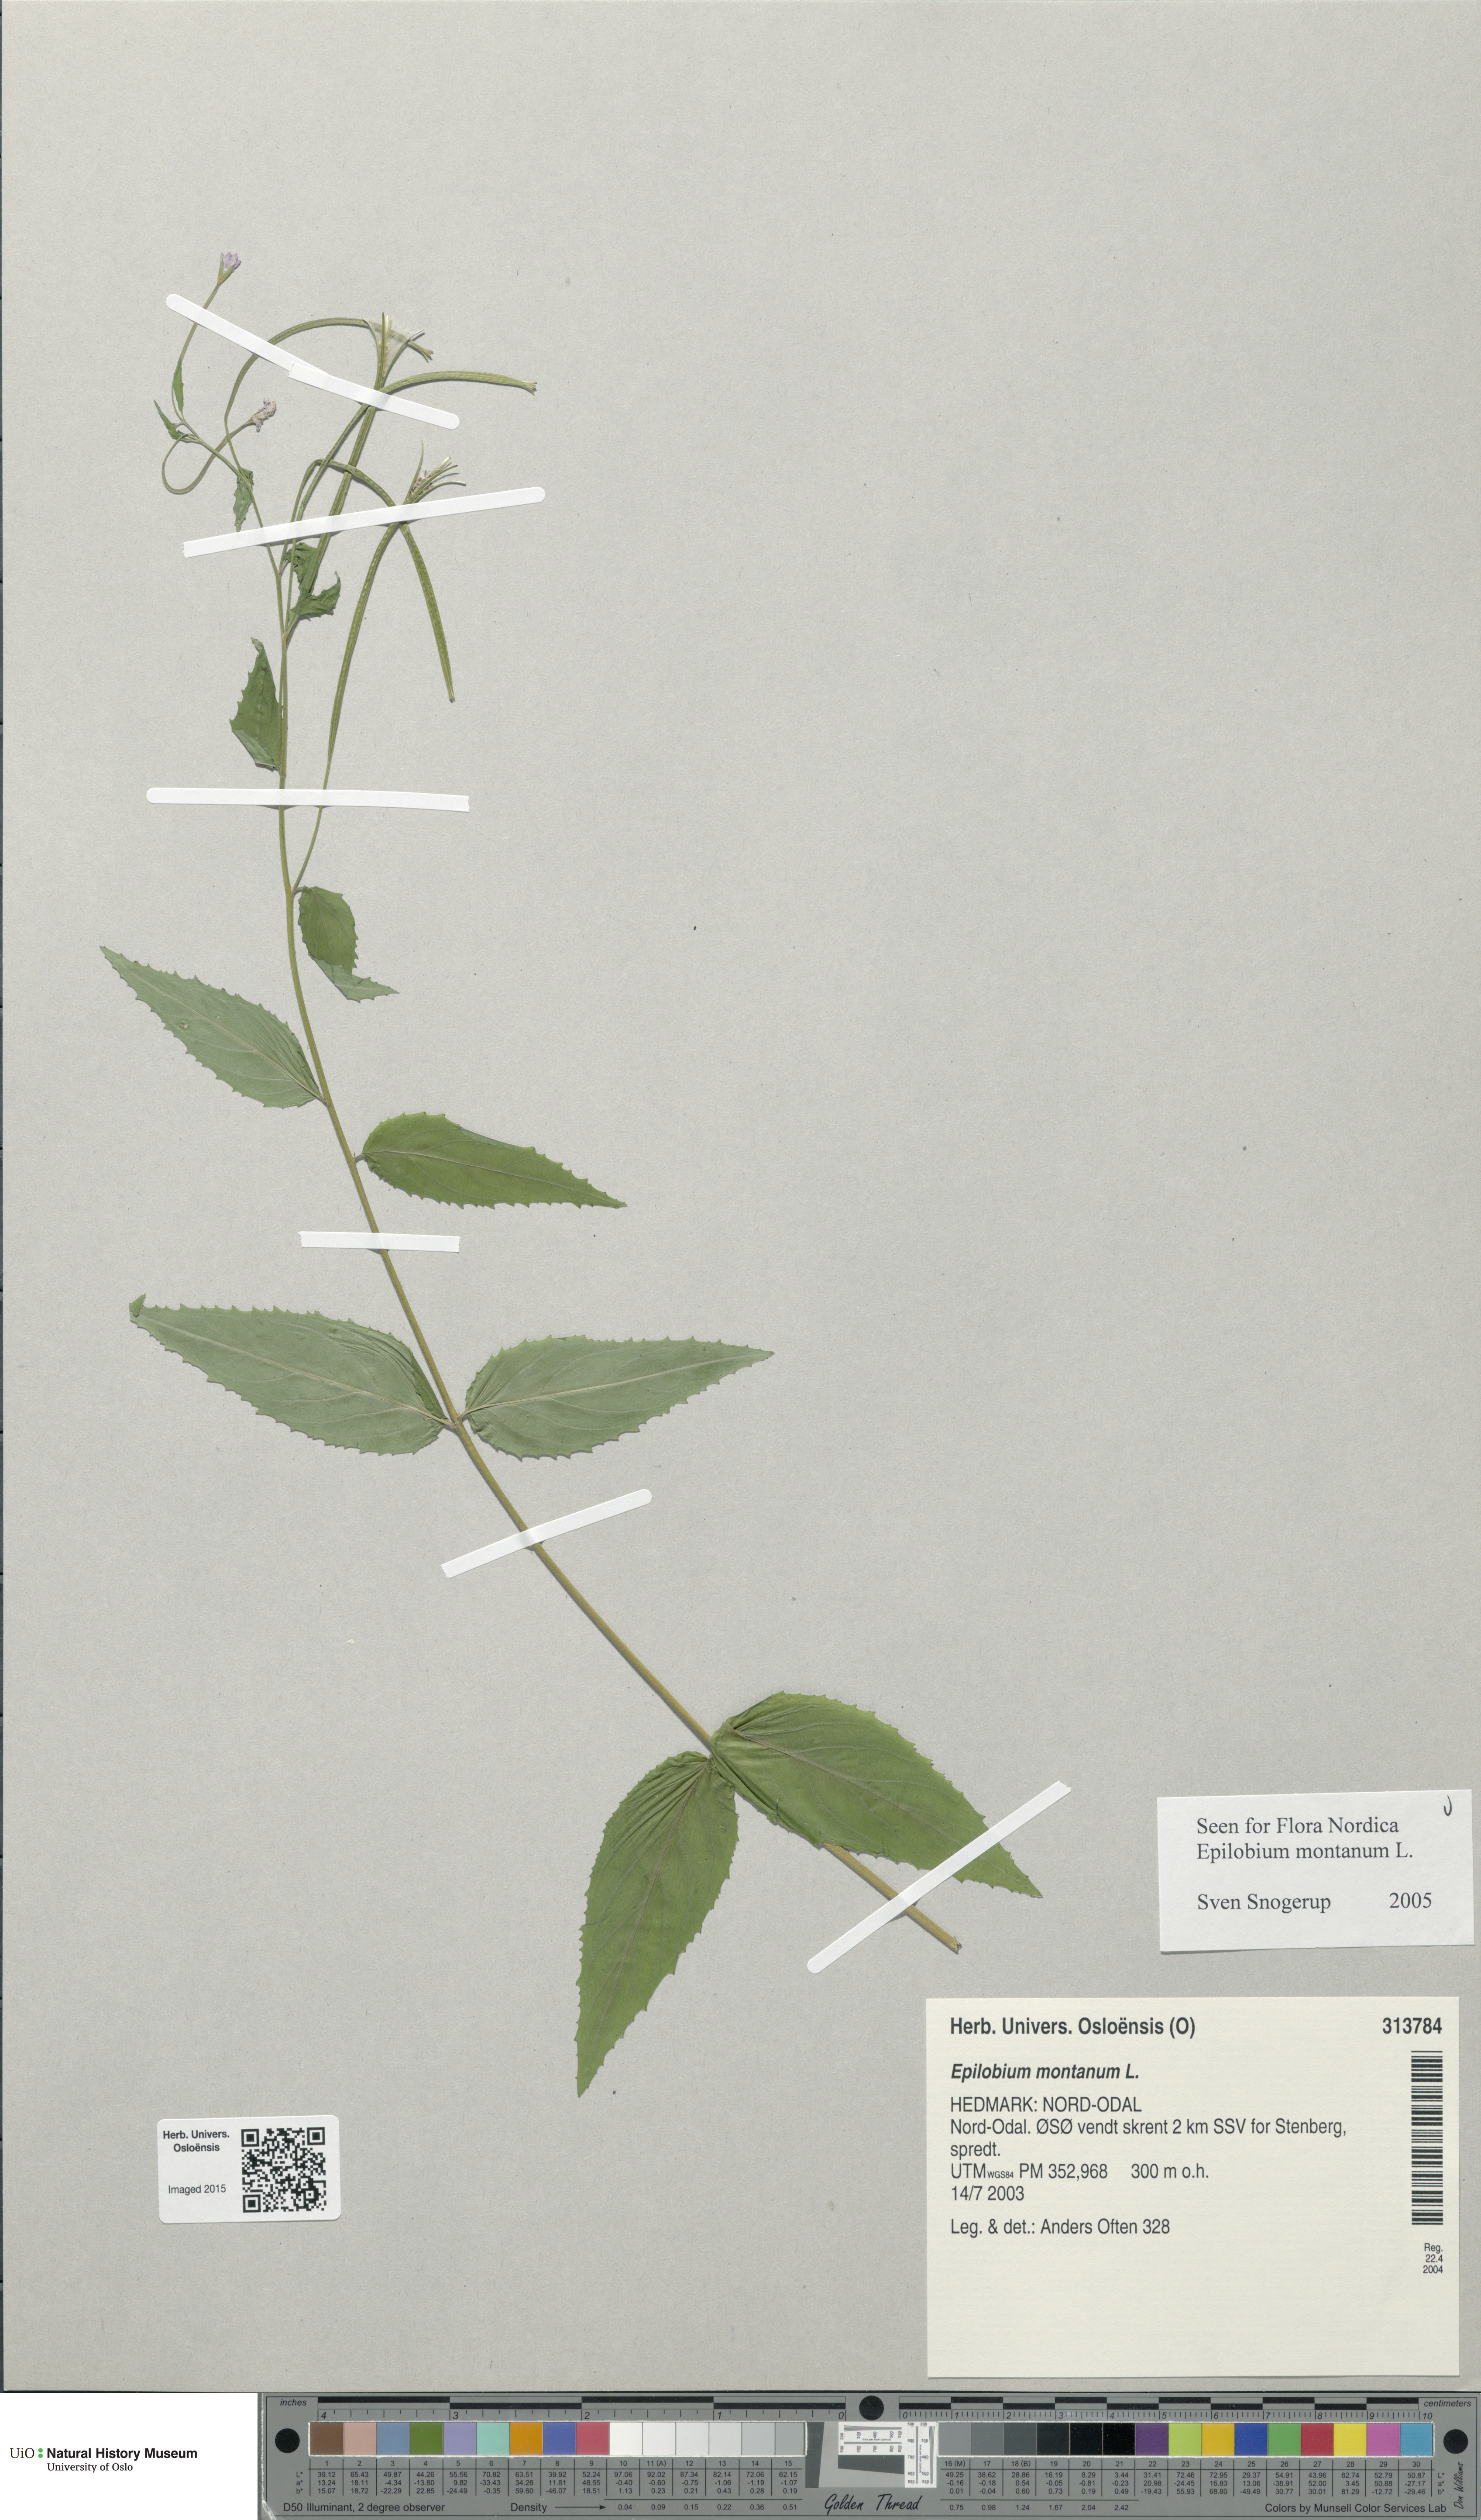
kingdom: Plantae
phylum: Tracheophyta
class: Magnoliopsida
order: Myrtales
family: Onagraceae
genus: Epilobium
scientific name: Epilobium montanum
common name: Broad-leaved willowherb
